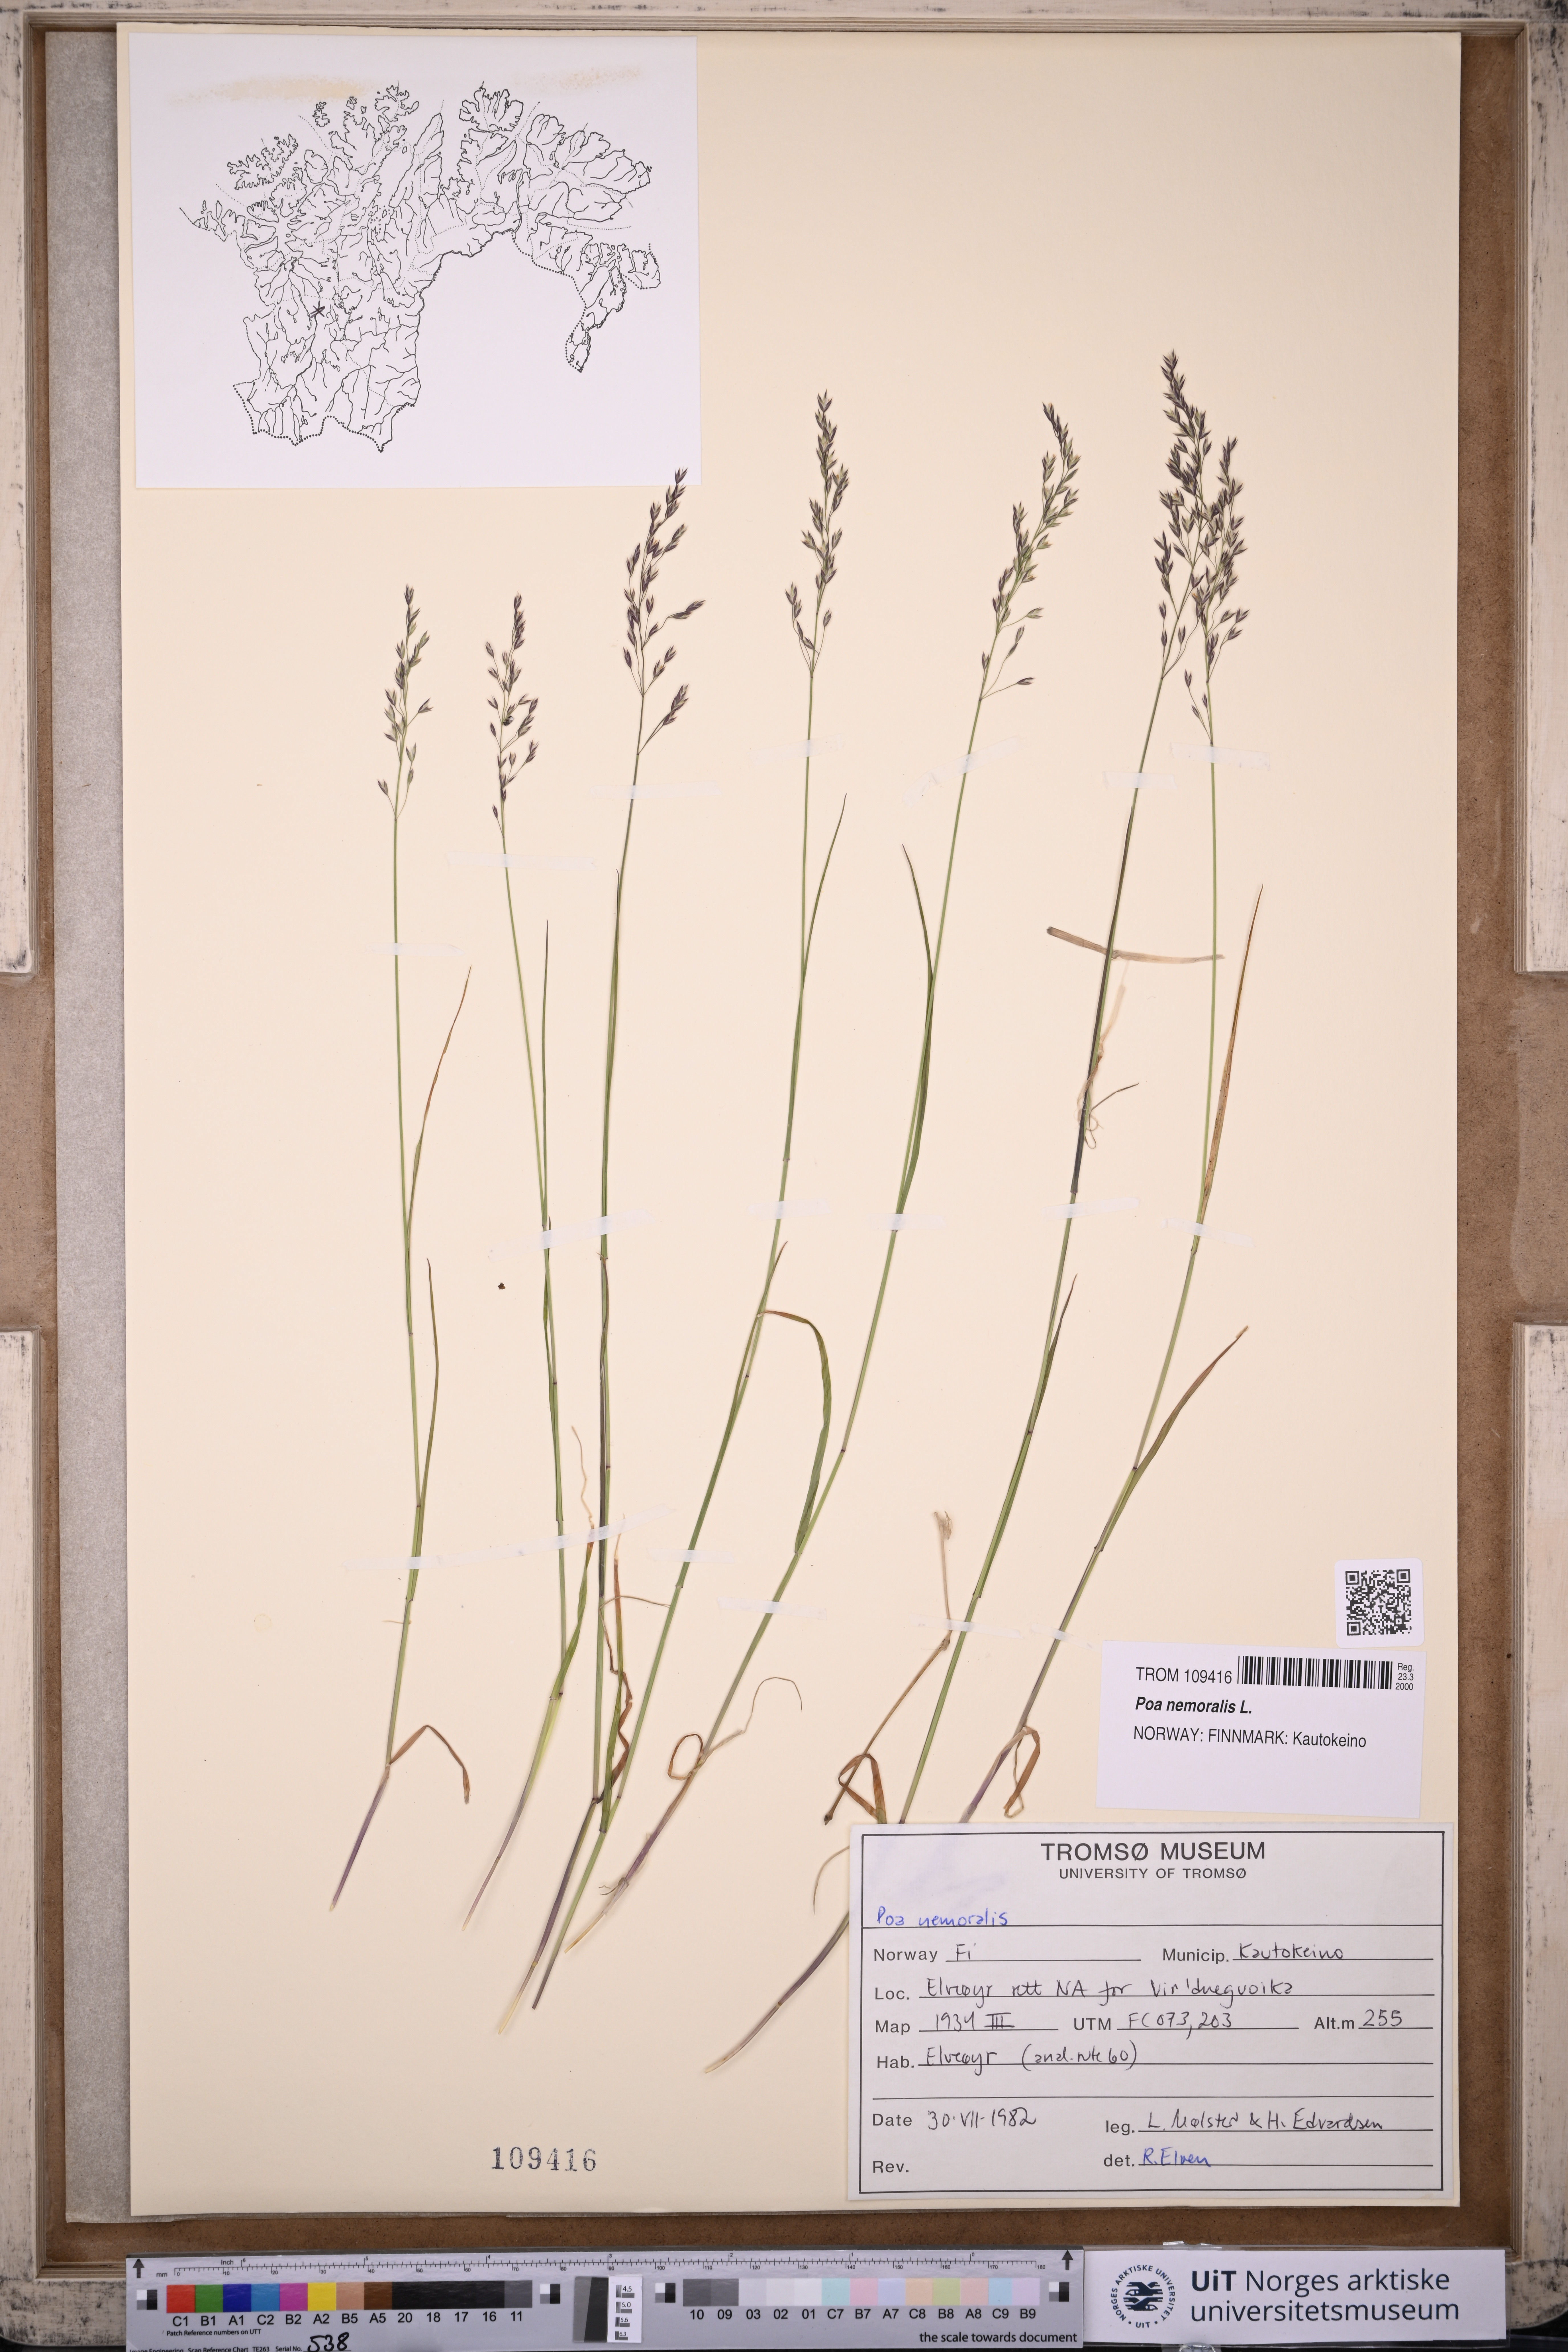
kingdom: Plantae
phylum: Tracheophyta
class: Liliopsida
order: Poales
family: Poaceae
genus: Poa
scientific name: Poa nemoralis
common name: Wood bluegrass
